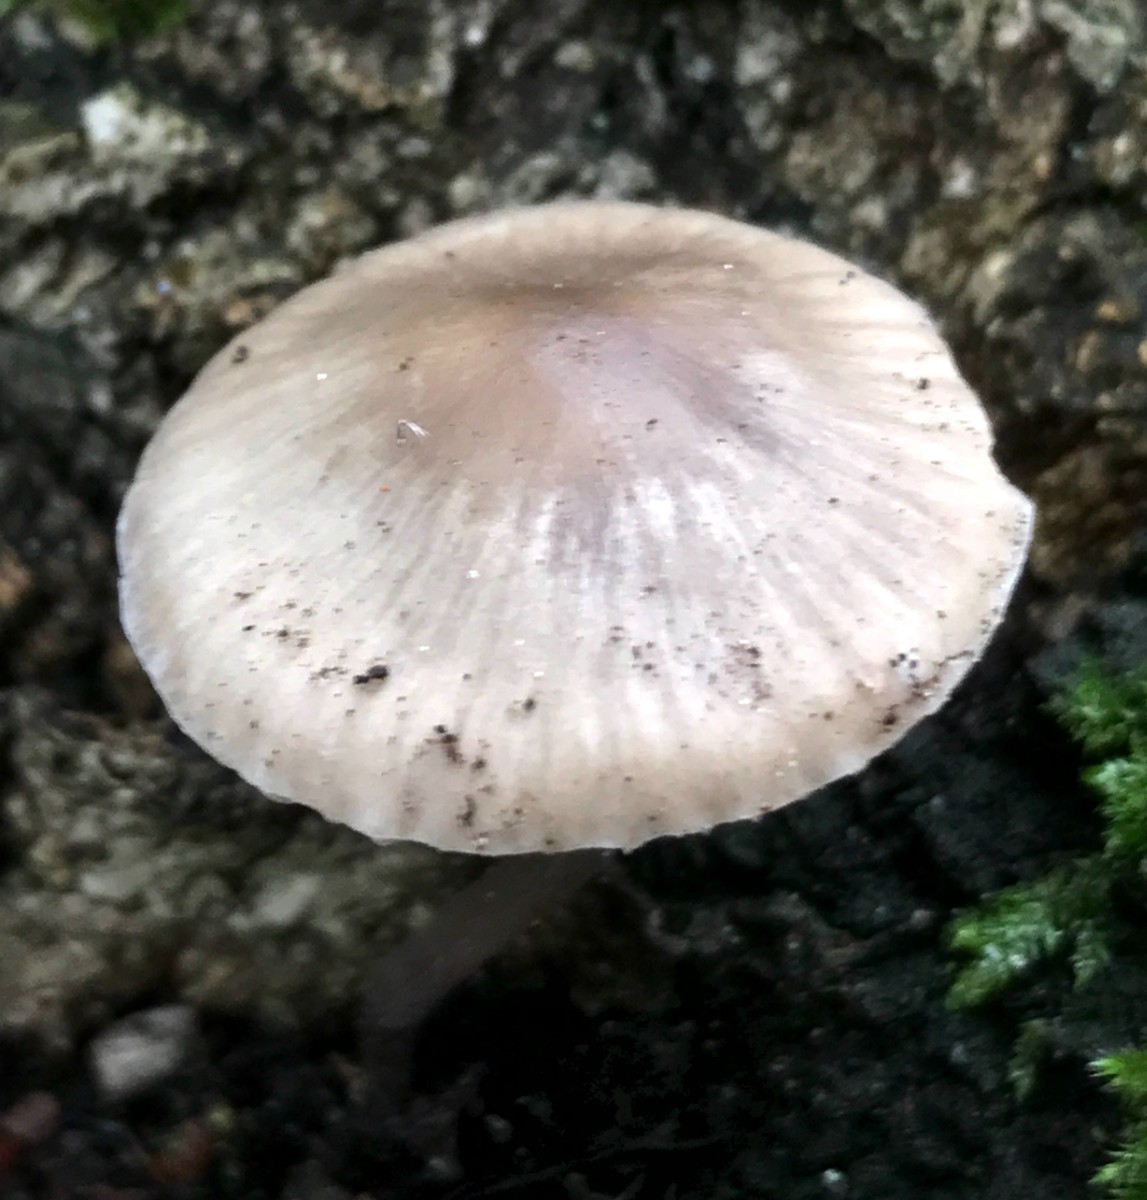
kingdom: Fungi
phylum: Basidiomycota
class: Agaricomycetes
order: Agaricales
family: Mycenaceae
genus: Mycena
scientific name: Mycena galericulata
